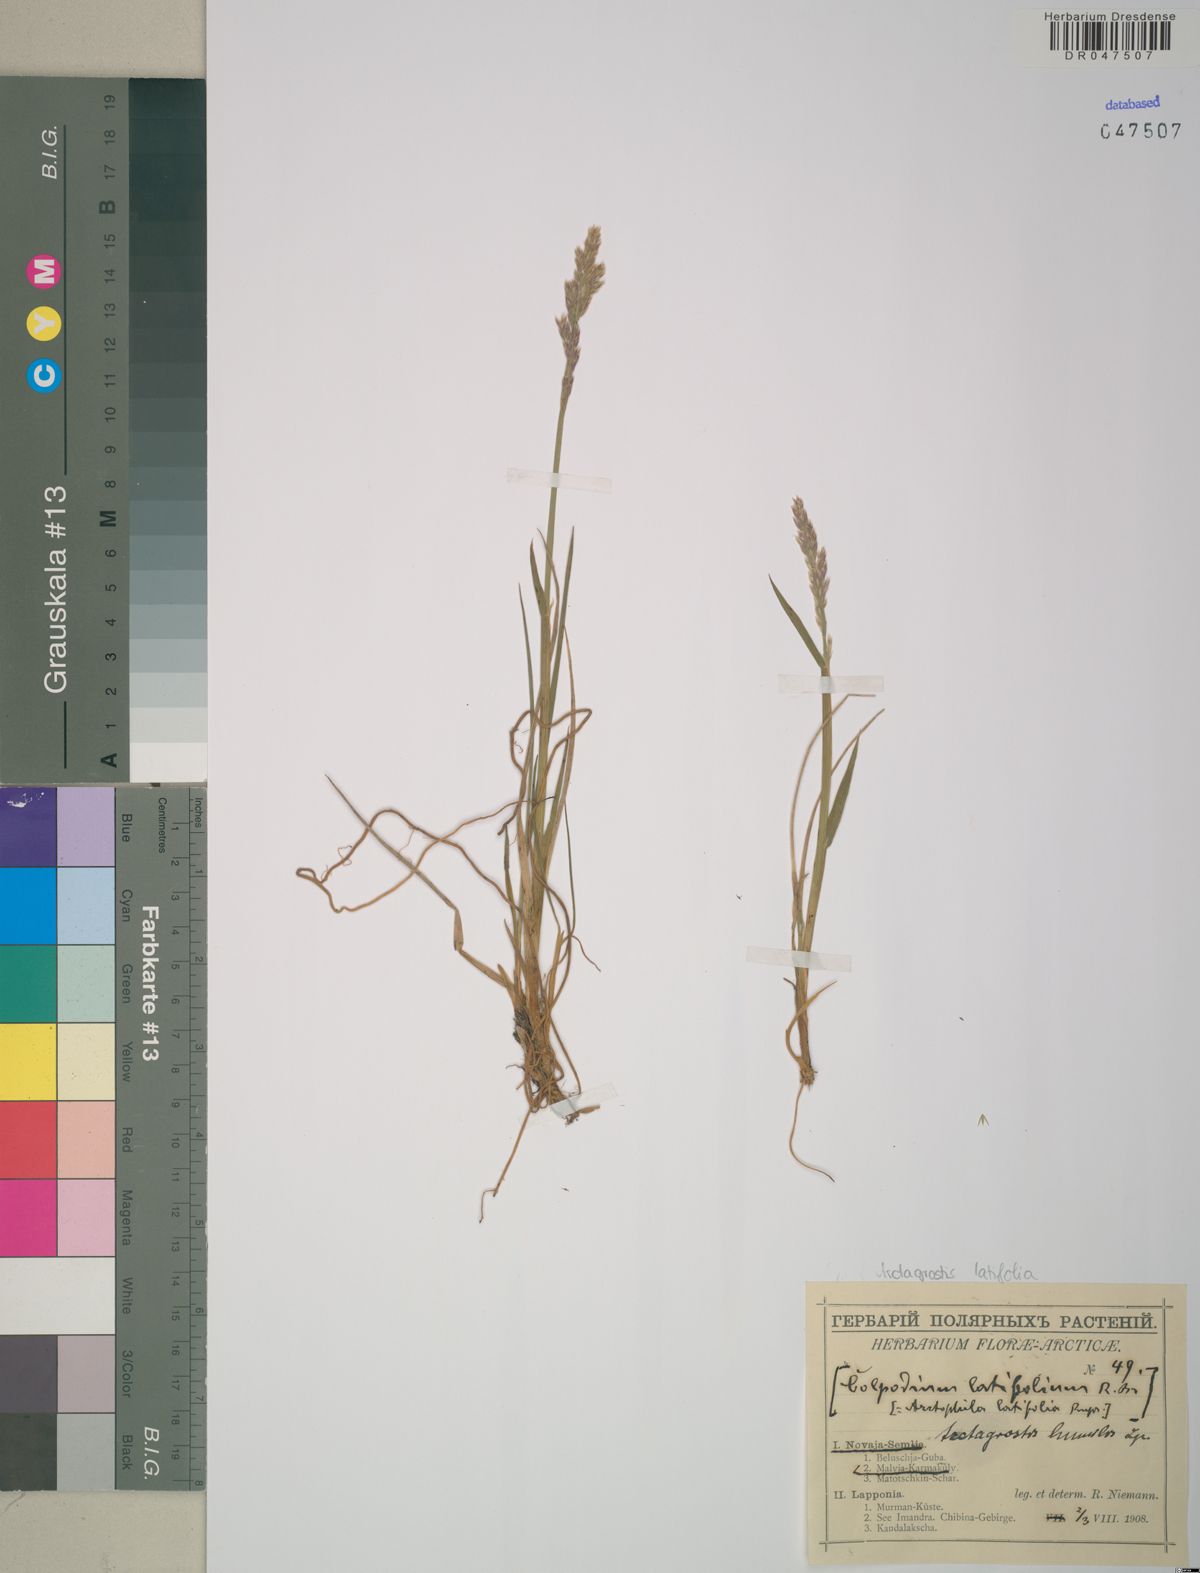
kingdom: Plantae
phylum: Tracheophyta
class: Liliopsida
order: Poales
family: Poaceae
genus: Arctagrostis
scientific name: Arctagrostis latifolia
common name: Arctic grass
